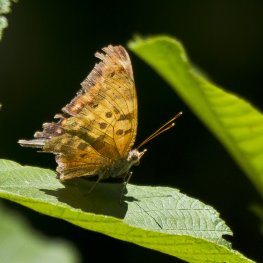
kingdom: Animalia
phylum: Arthropoda
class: Insecta
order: Lepidoptera
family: Nymphalidae
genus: Polygonia
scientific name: Polygonia interrogationis
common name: Question Mark
